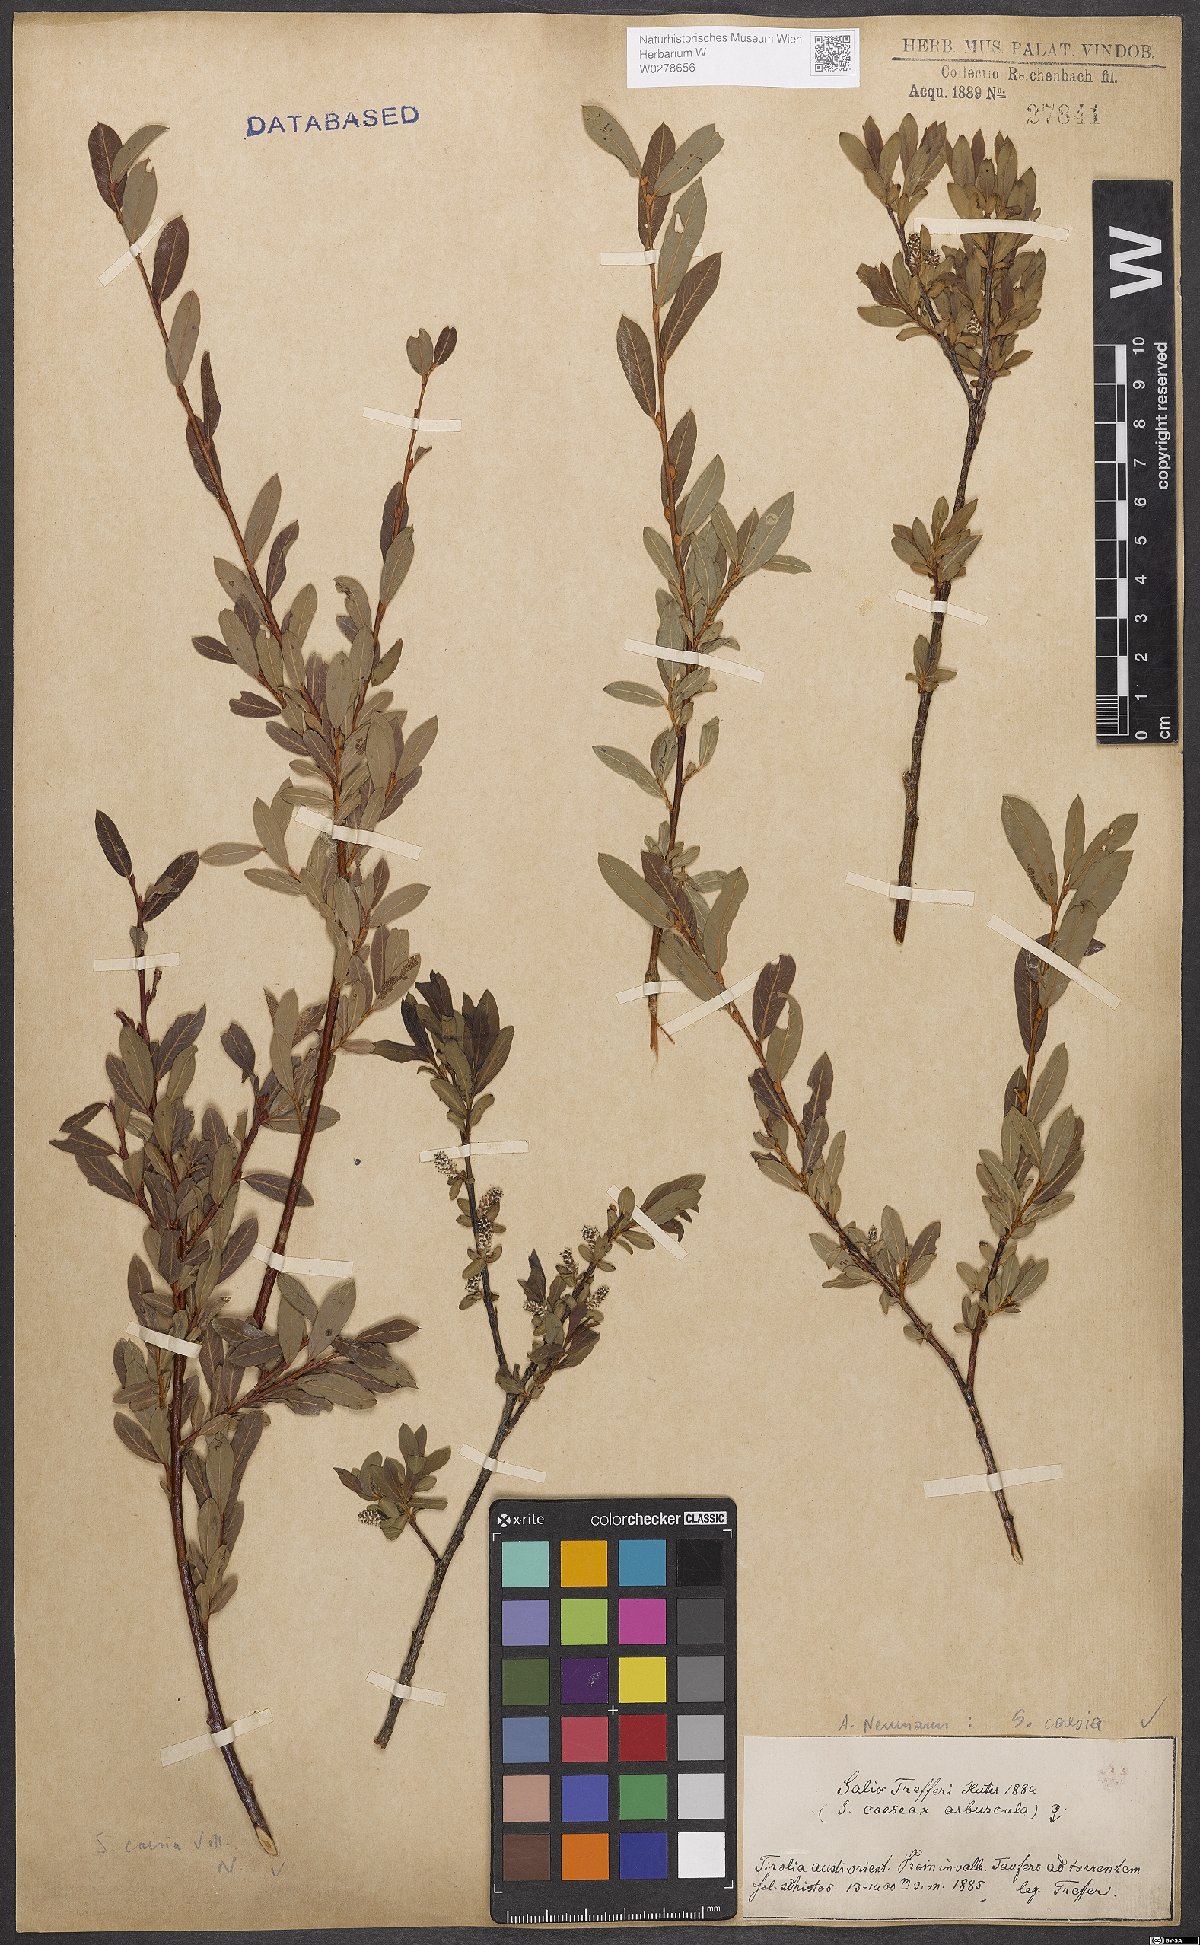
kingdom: Plantae
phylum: Tracheophyta
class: Magnoliopsida
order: Malpighiales
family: Salicaceae
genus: Salix
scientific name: Salix caesia
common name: Blue willow
